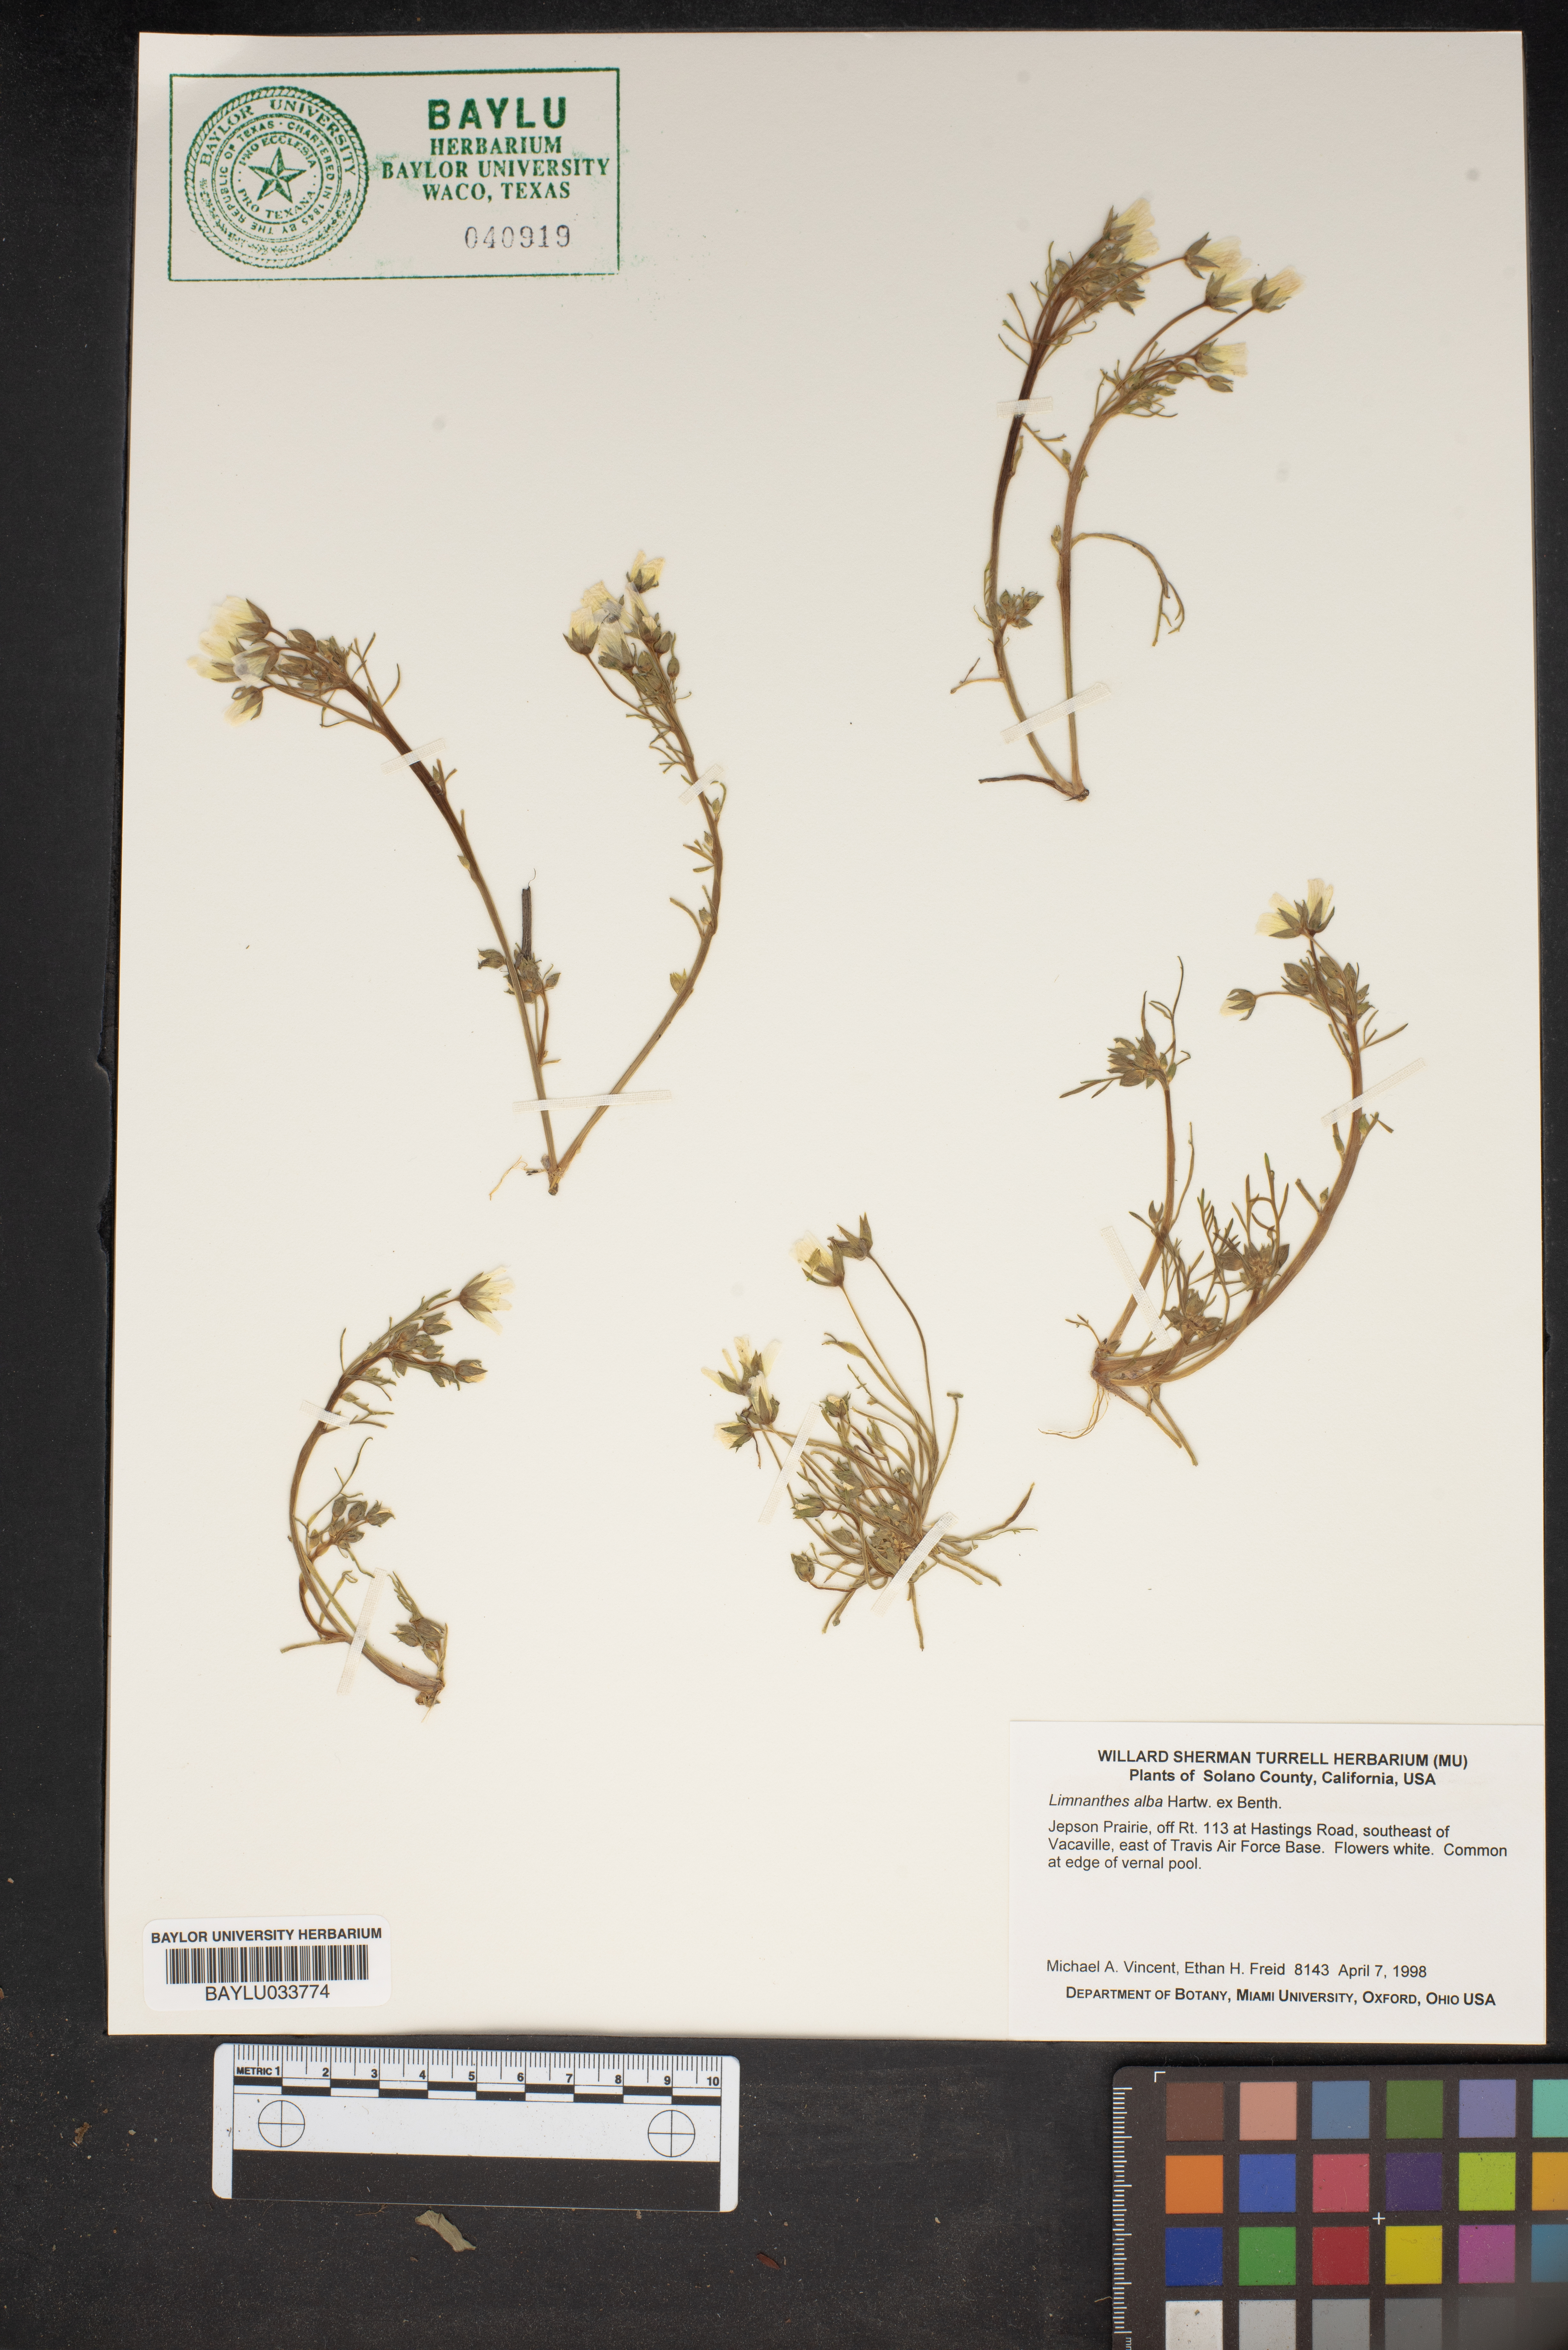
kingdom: Plantae
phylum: Tracheophyta
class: Magnoliopsida
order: Brassicales
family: Limnanthaceae
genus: Limnanthes
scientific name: Limnanthes alba
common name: Meadowfoam
